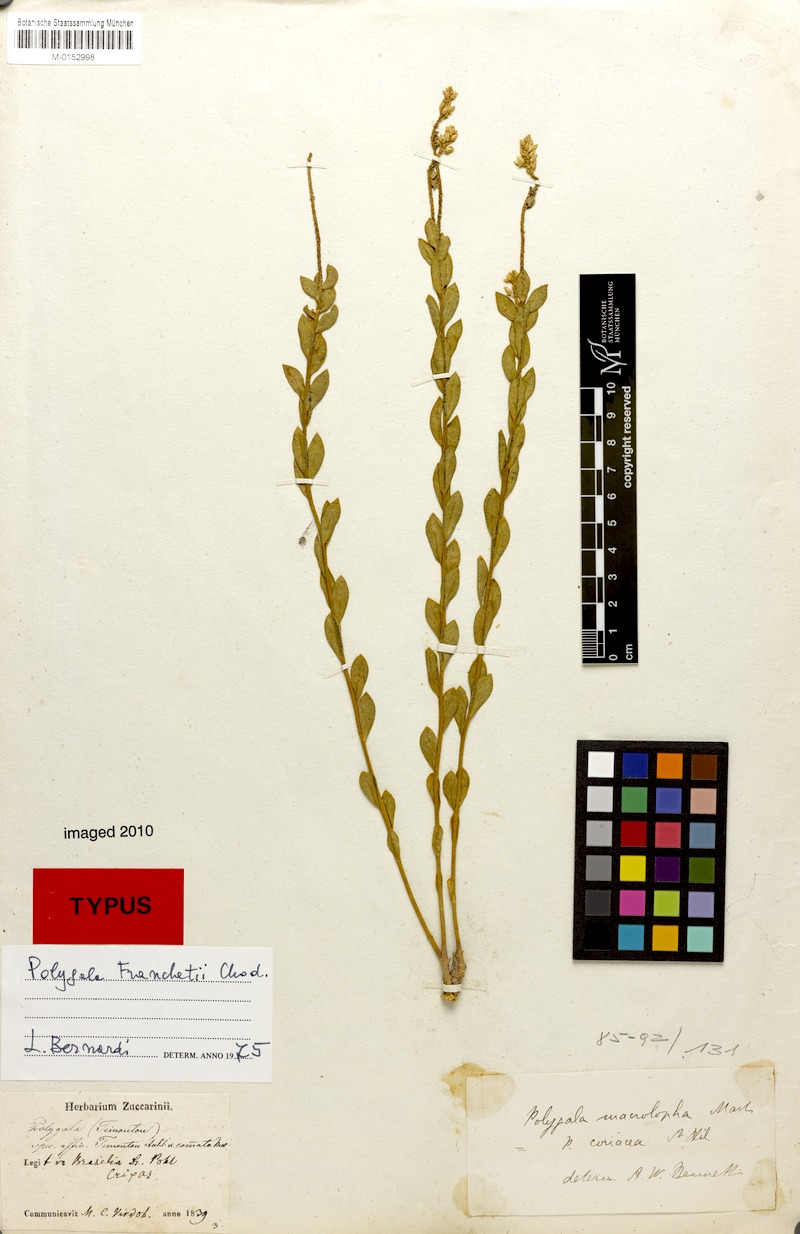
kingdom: Plantae
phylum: Tracheophyta
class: Magnoliopsida
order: Fabales
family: Polygalaceae
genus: Polygala
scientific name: Polygala franchetii
